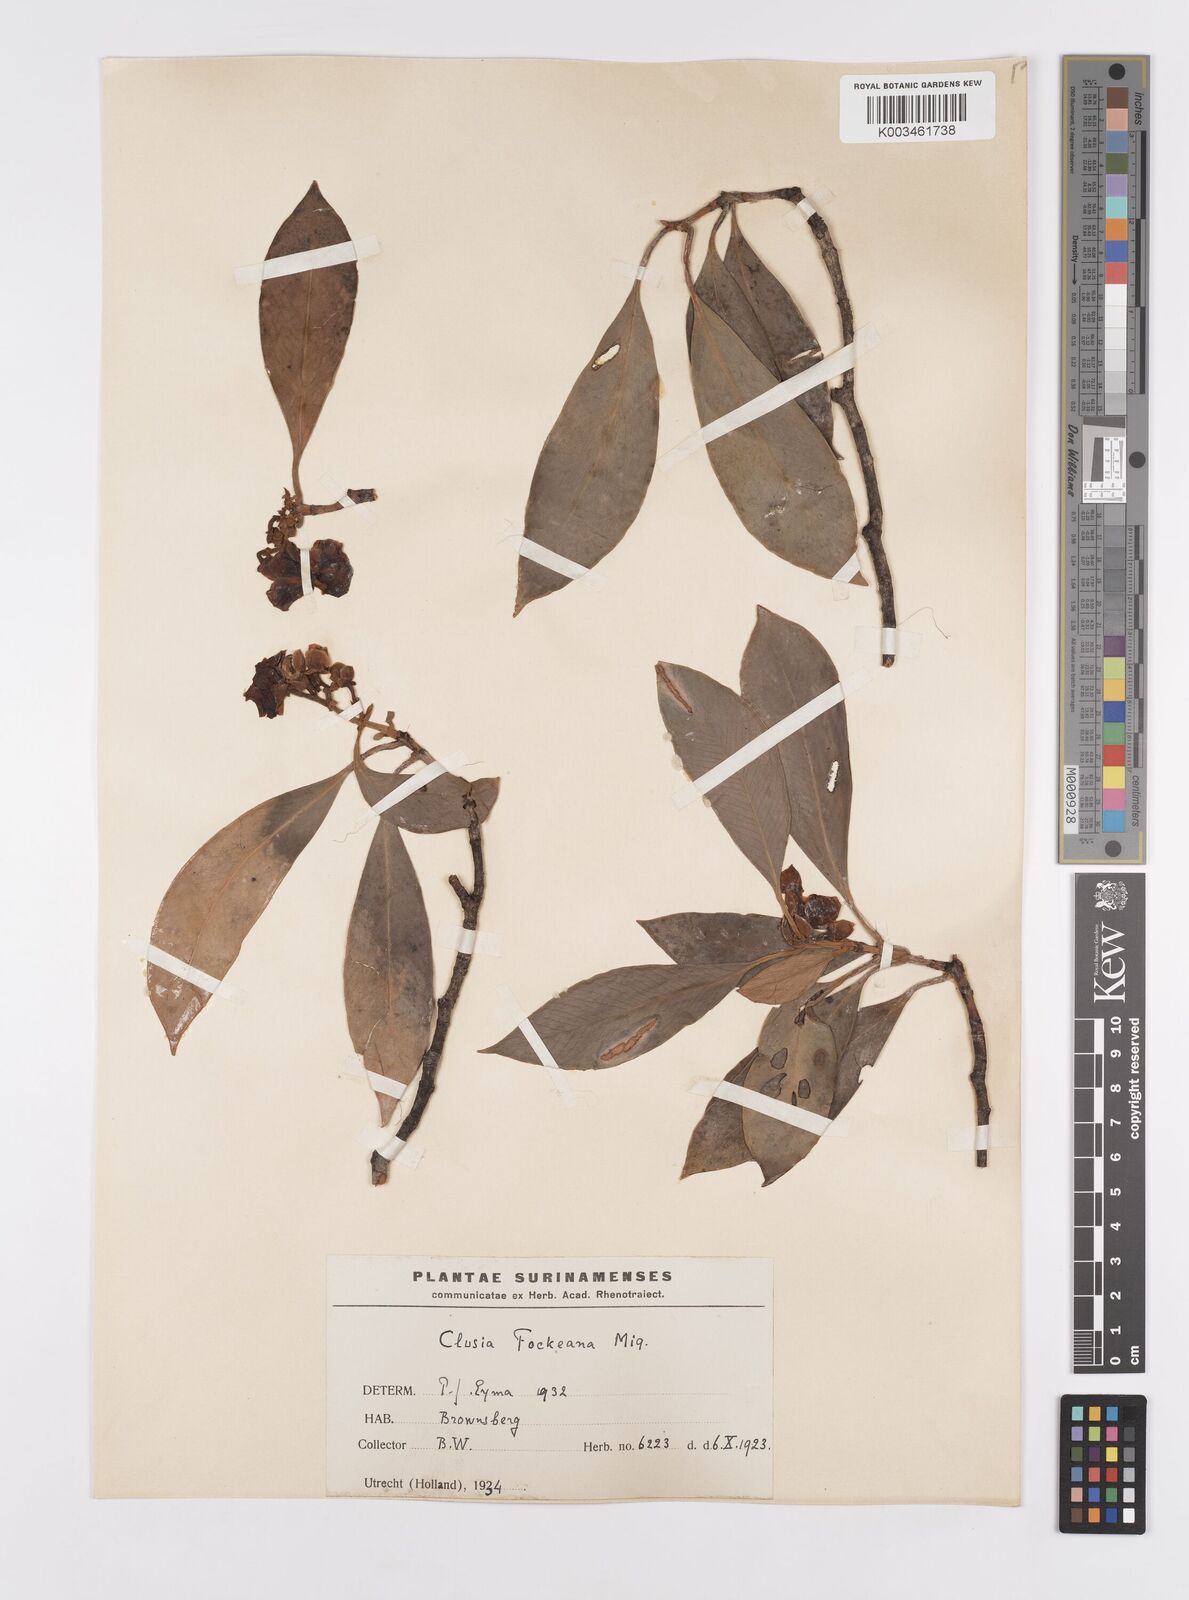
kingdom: Plantae
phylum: Tracheophyta
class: Magnoliopsida
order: Malpighiales
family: Clusiaceae
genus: Clusia
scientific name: Clusia fockeana
